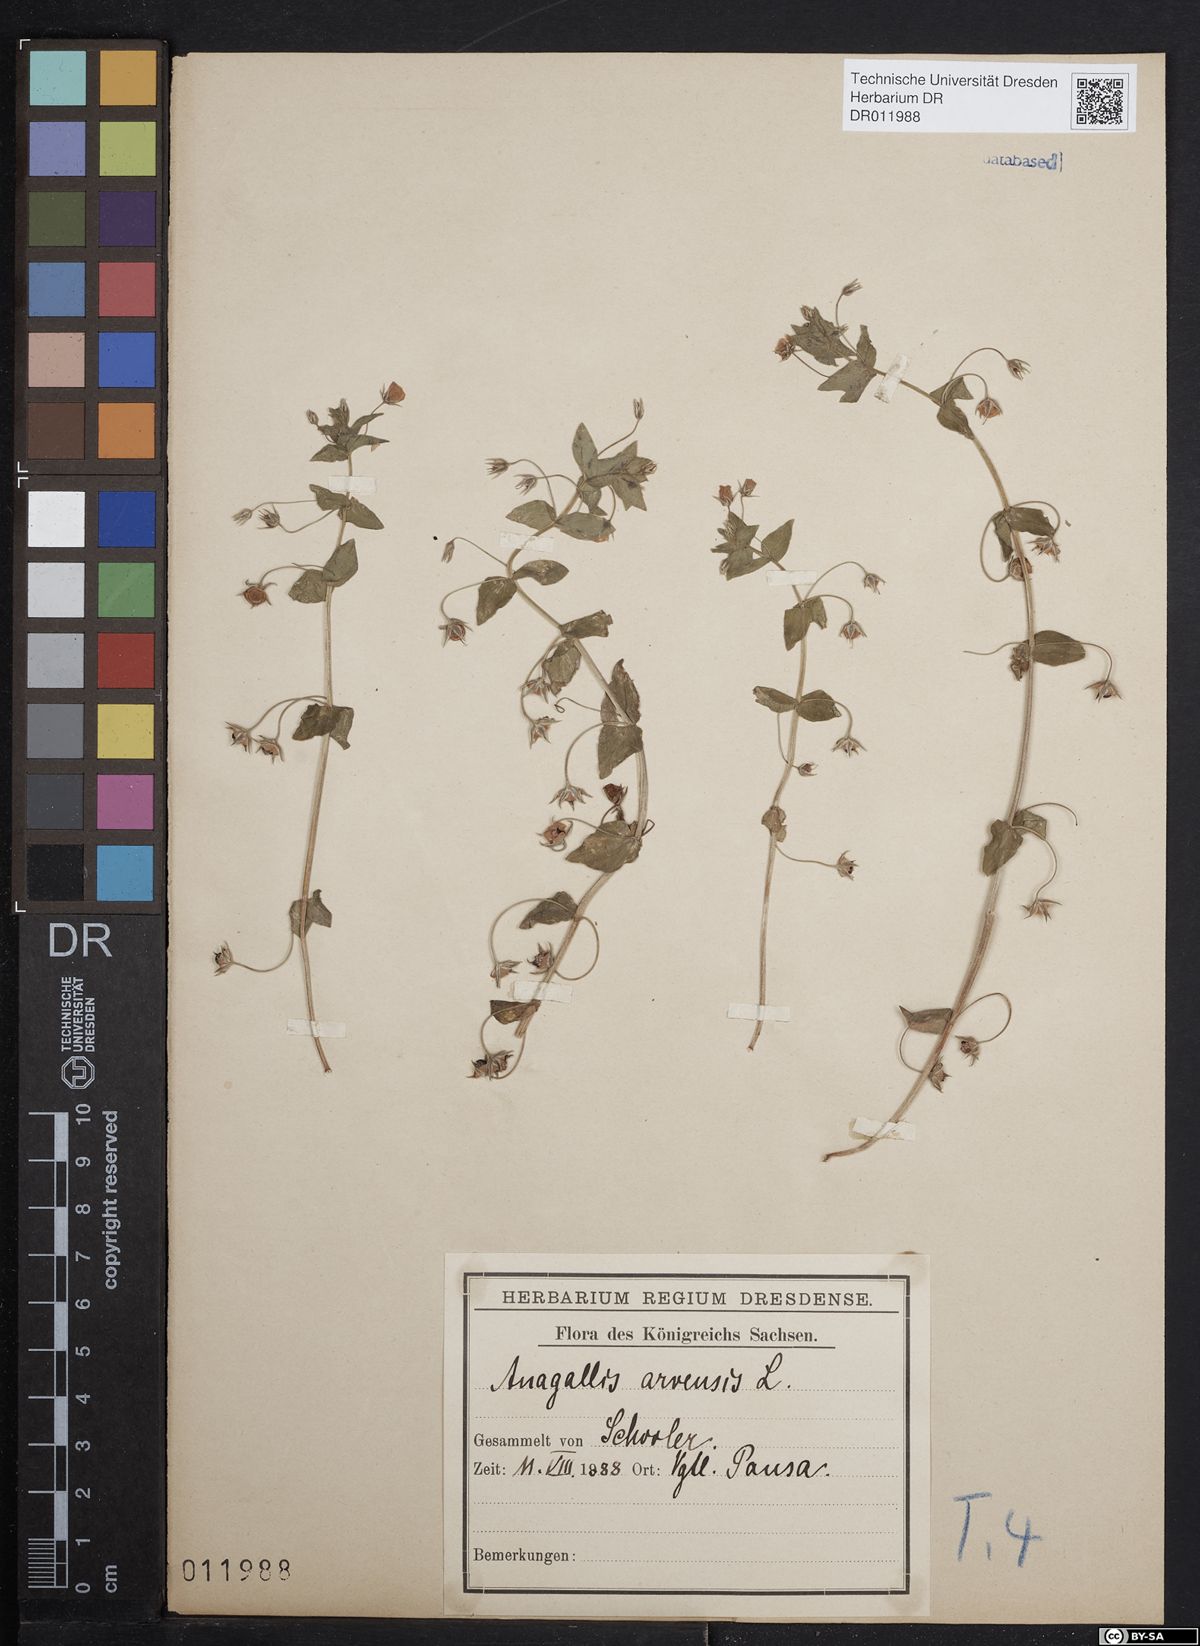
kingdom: Plantae
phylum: Tracheophyta
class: Magnoliopsida
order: Ericales
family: Primulaceae
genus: Lysimachia
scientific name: Lysimachia arvensis
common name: Scarlet pimpernel
